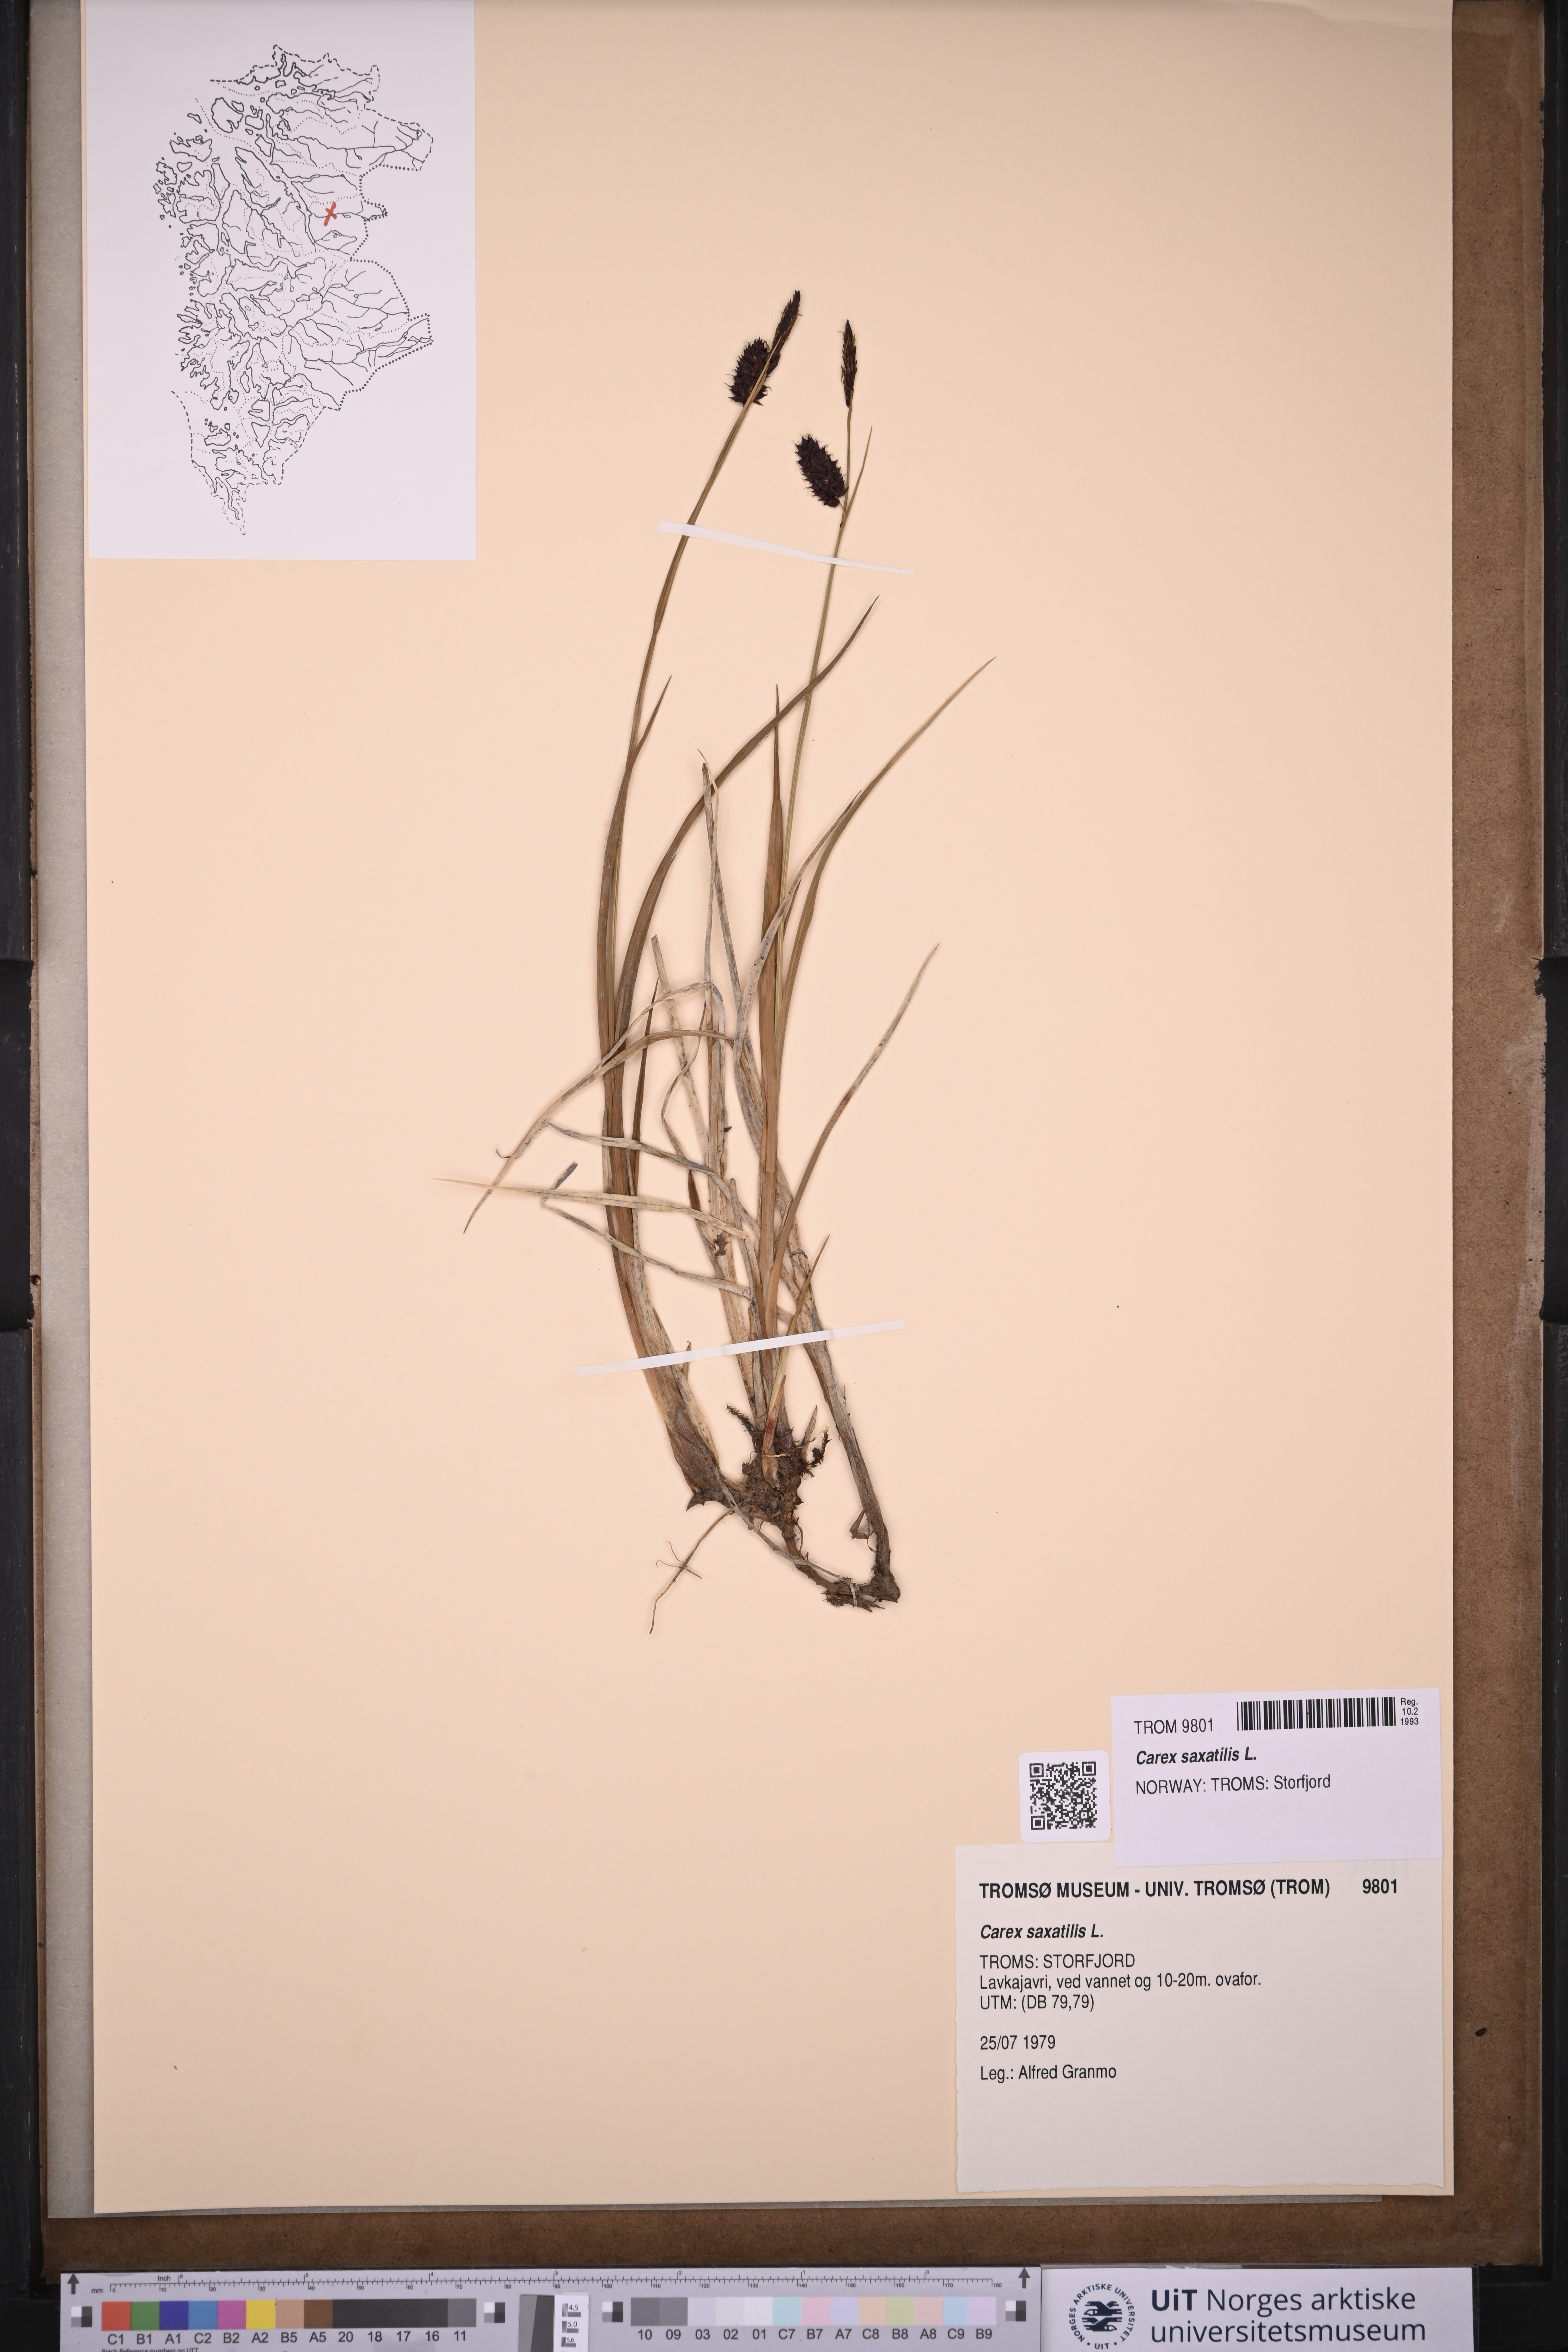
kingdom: Plantae
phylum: Tracheophyta
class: Liliopsida
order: Poales
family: Cyperaceae
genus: Carex
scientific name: Carex saxatilis
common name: Russet sedge
